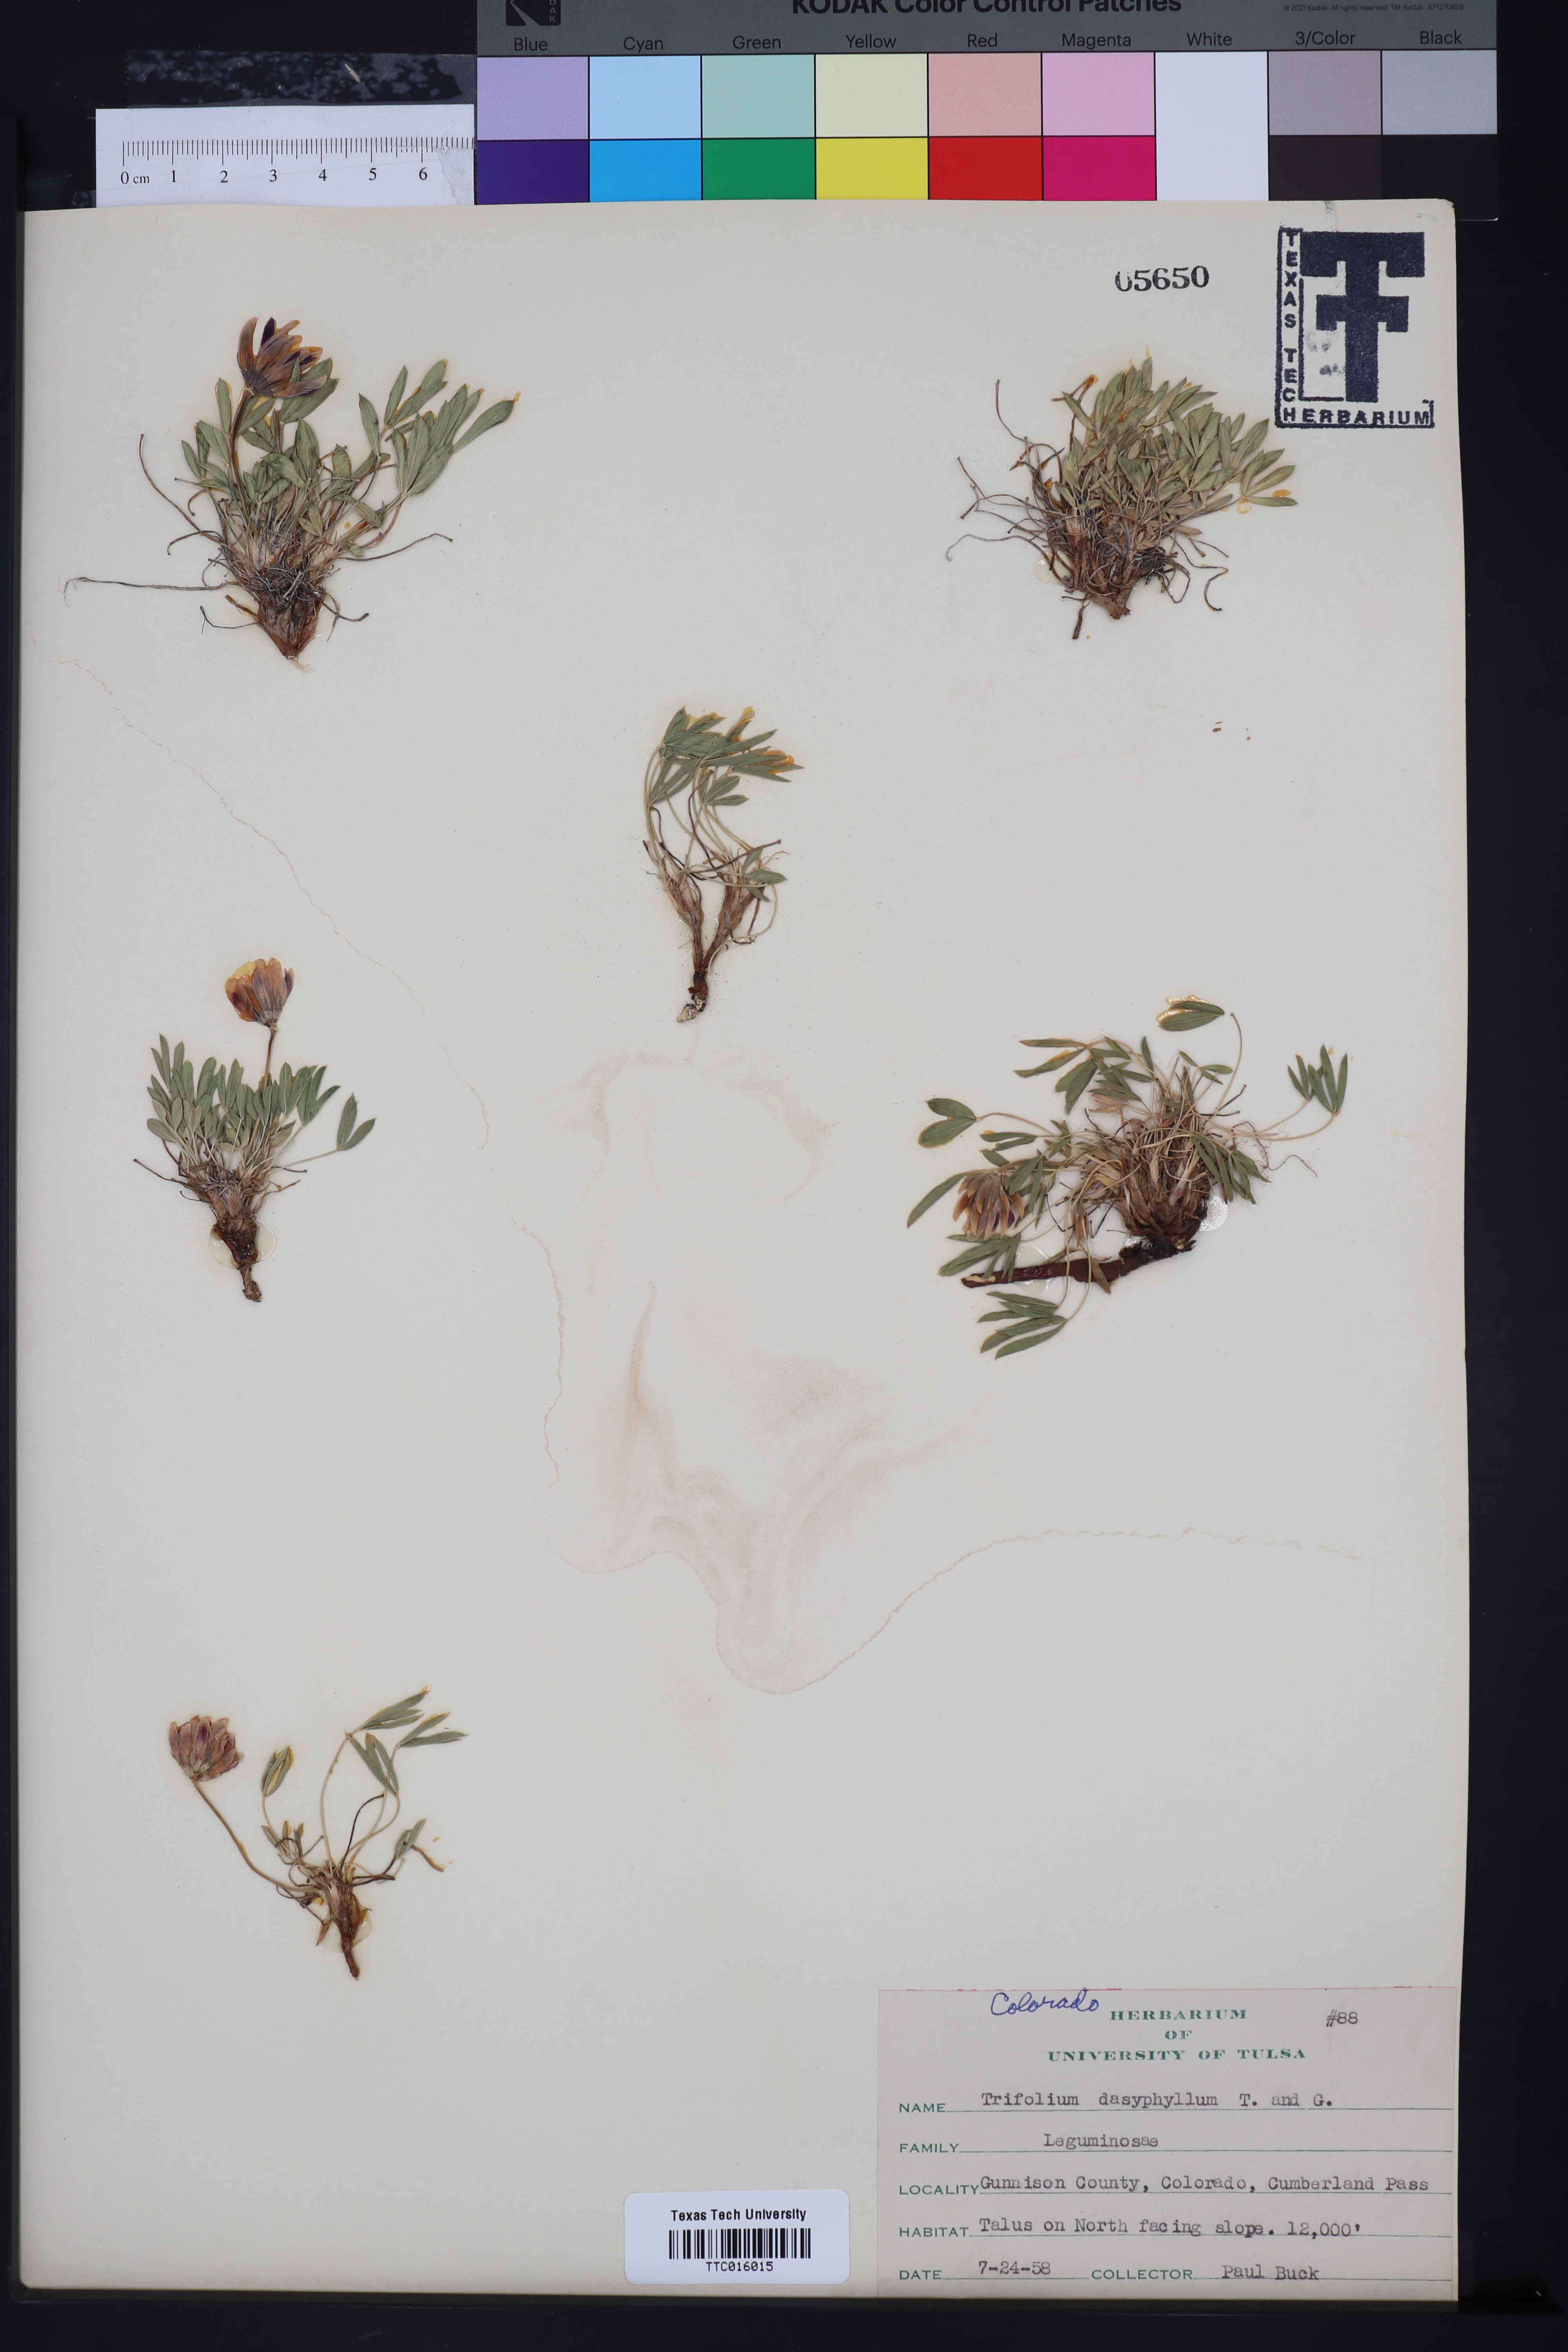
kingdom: Plantae
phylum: Tracheophyta
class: Magnoliopsida
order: Fabales
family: Fabaceae
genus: Trifolium
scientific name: Trifolium dasyphyllum
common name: Whip-root clover
